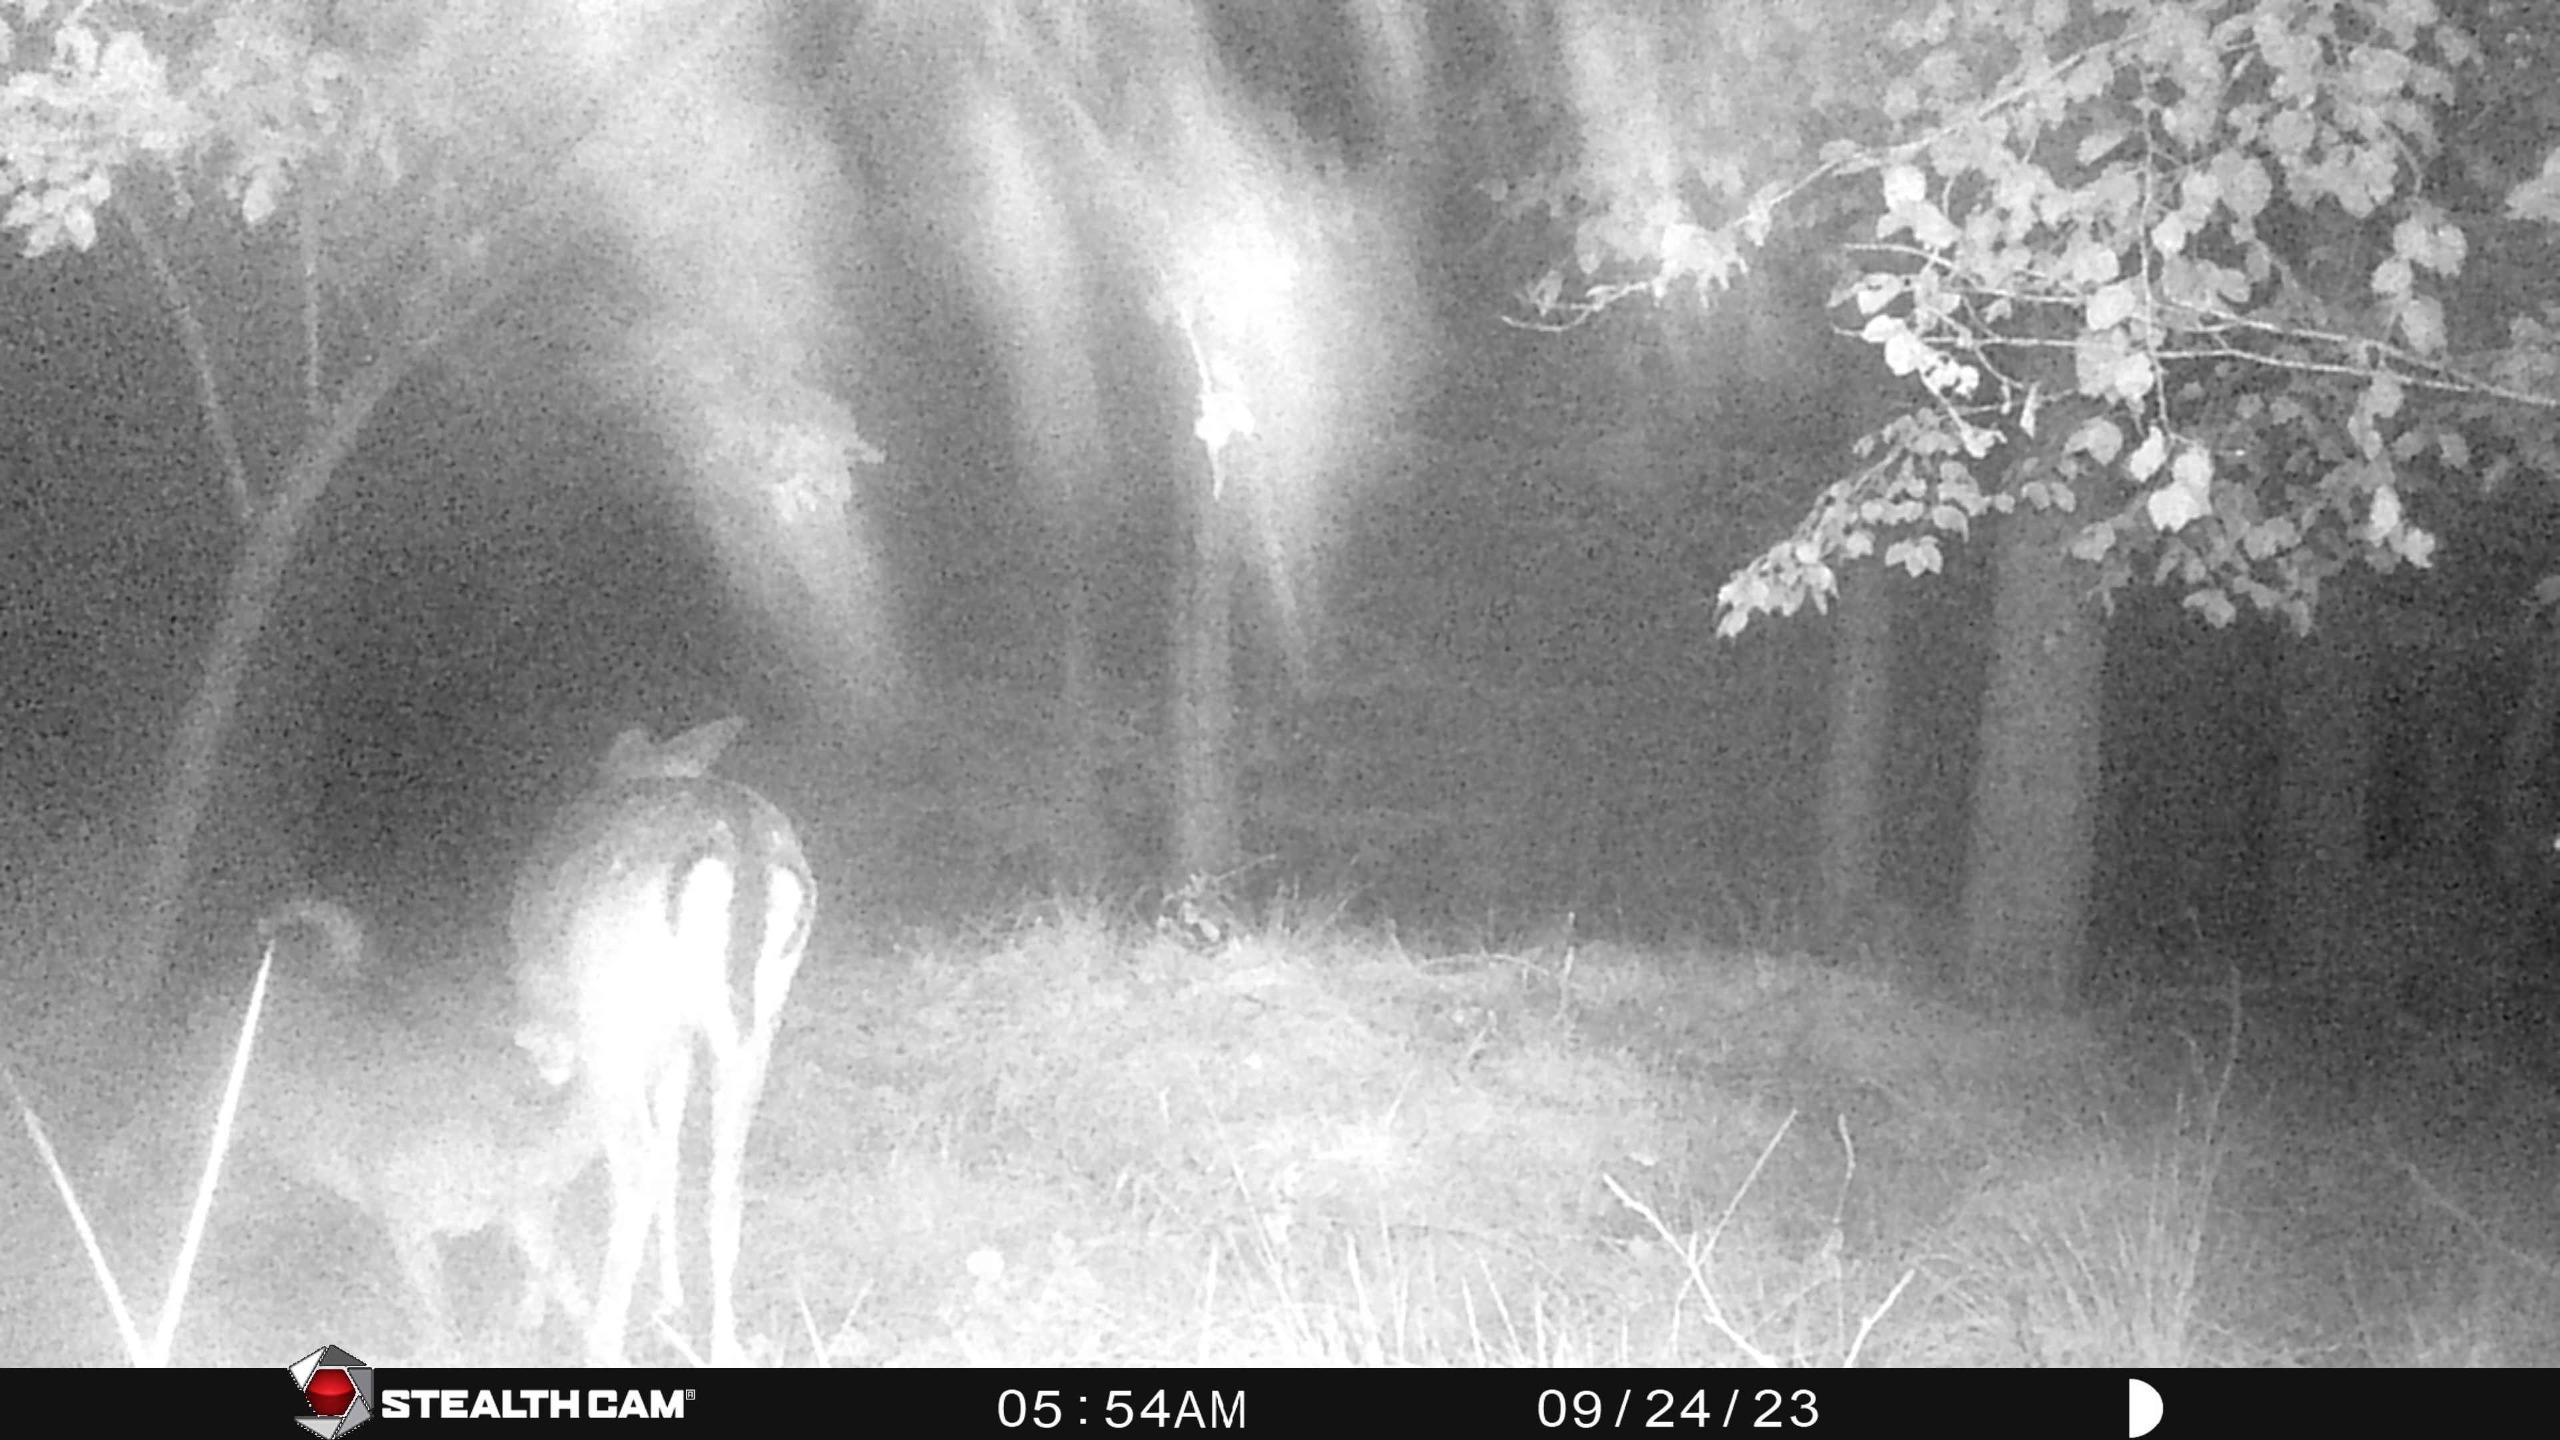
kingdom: Animalia
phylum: Chordata
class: Mammalia
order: Artiodactyla
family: Cervidae
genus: Dama
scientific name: Dama dama
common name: Dådyr
